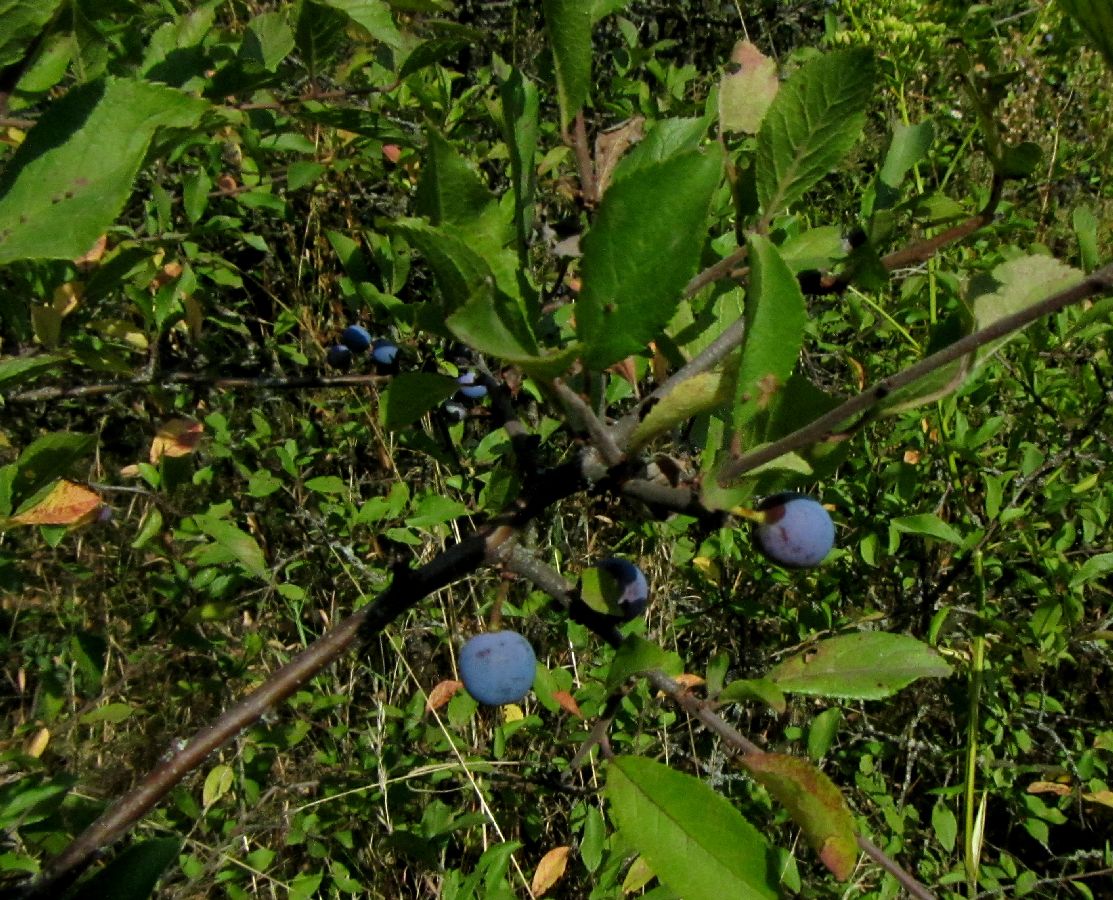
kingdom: Plantae
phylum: Tracheophyta
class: Magnoliopsida
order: Rosales
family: Rosaceae
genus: Prunus
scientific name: Prunus spinosa
